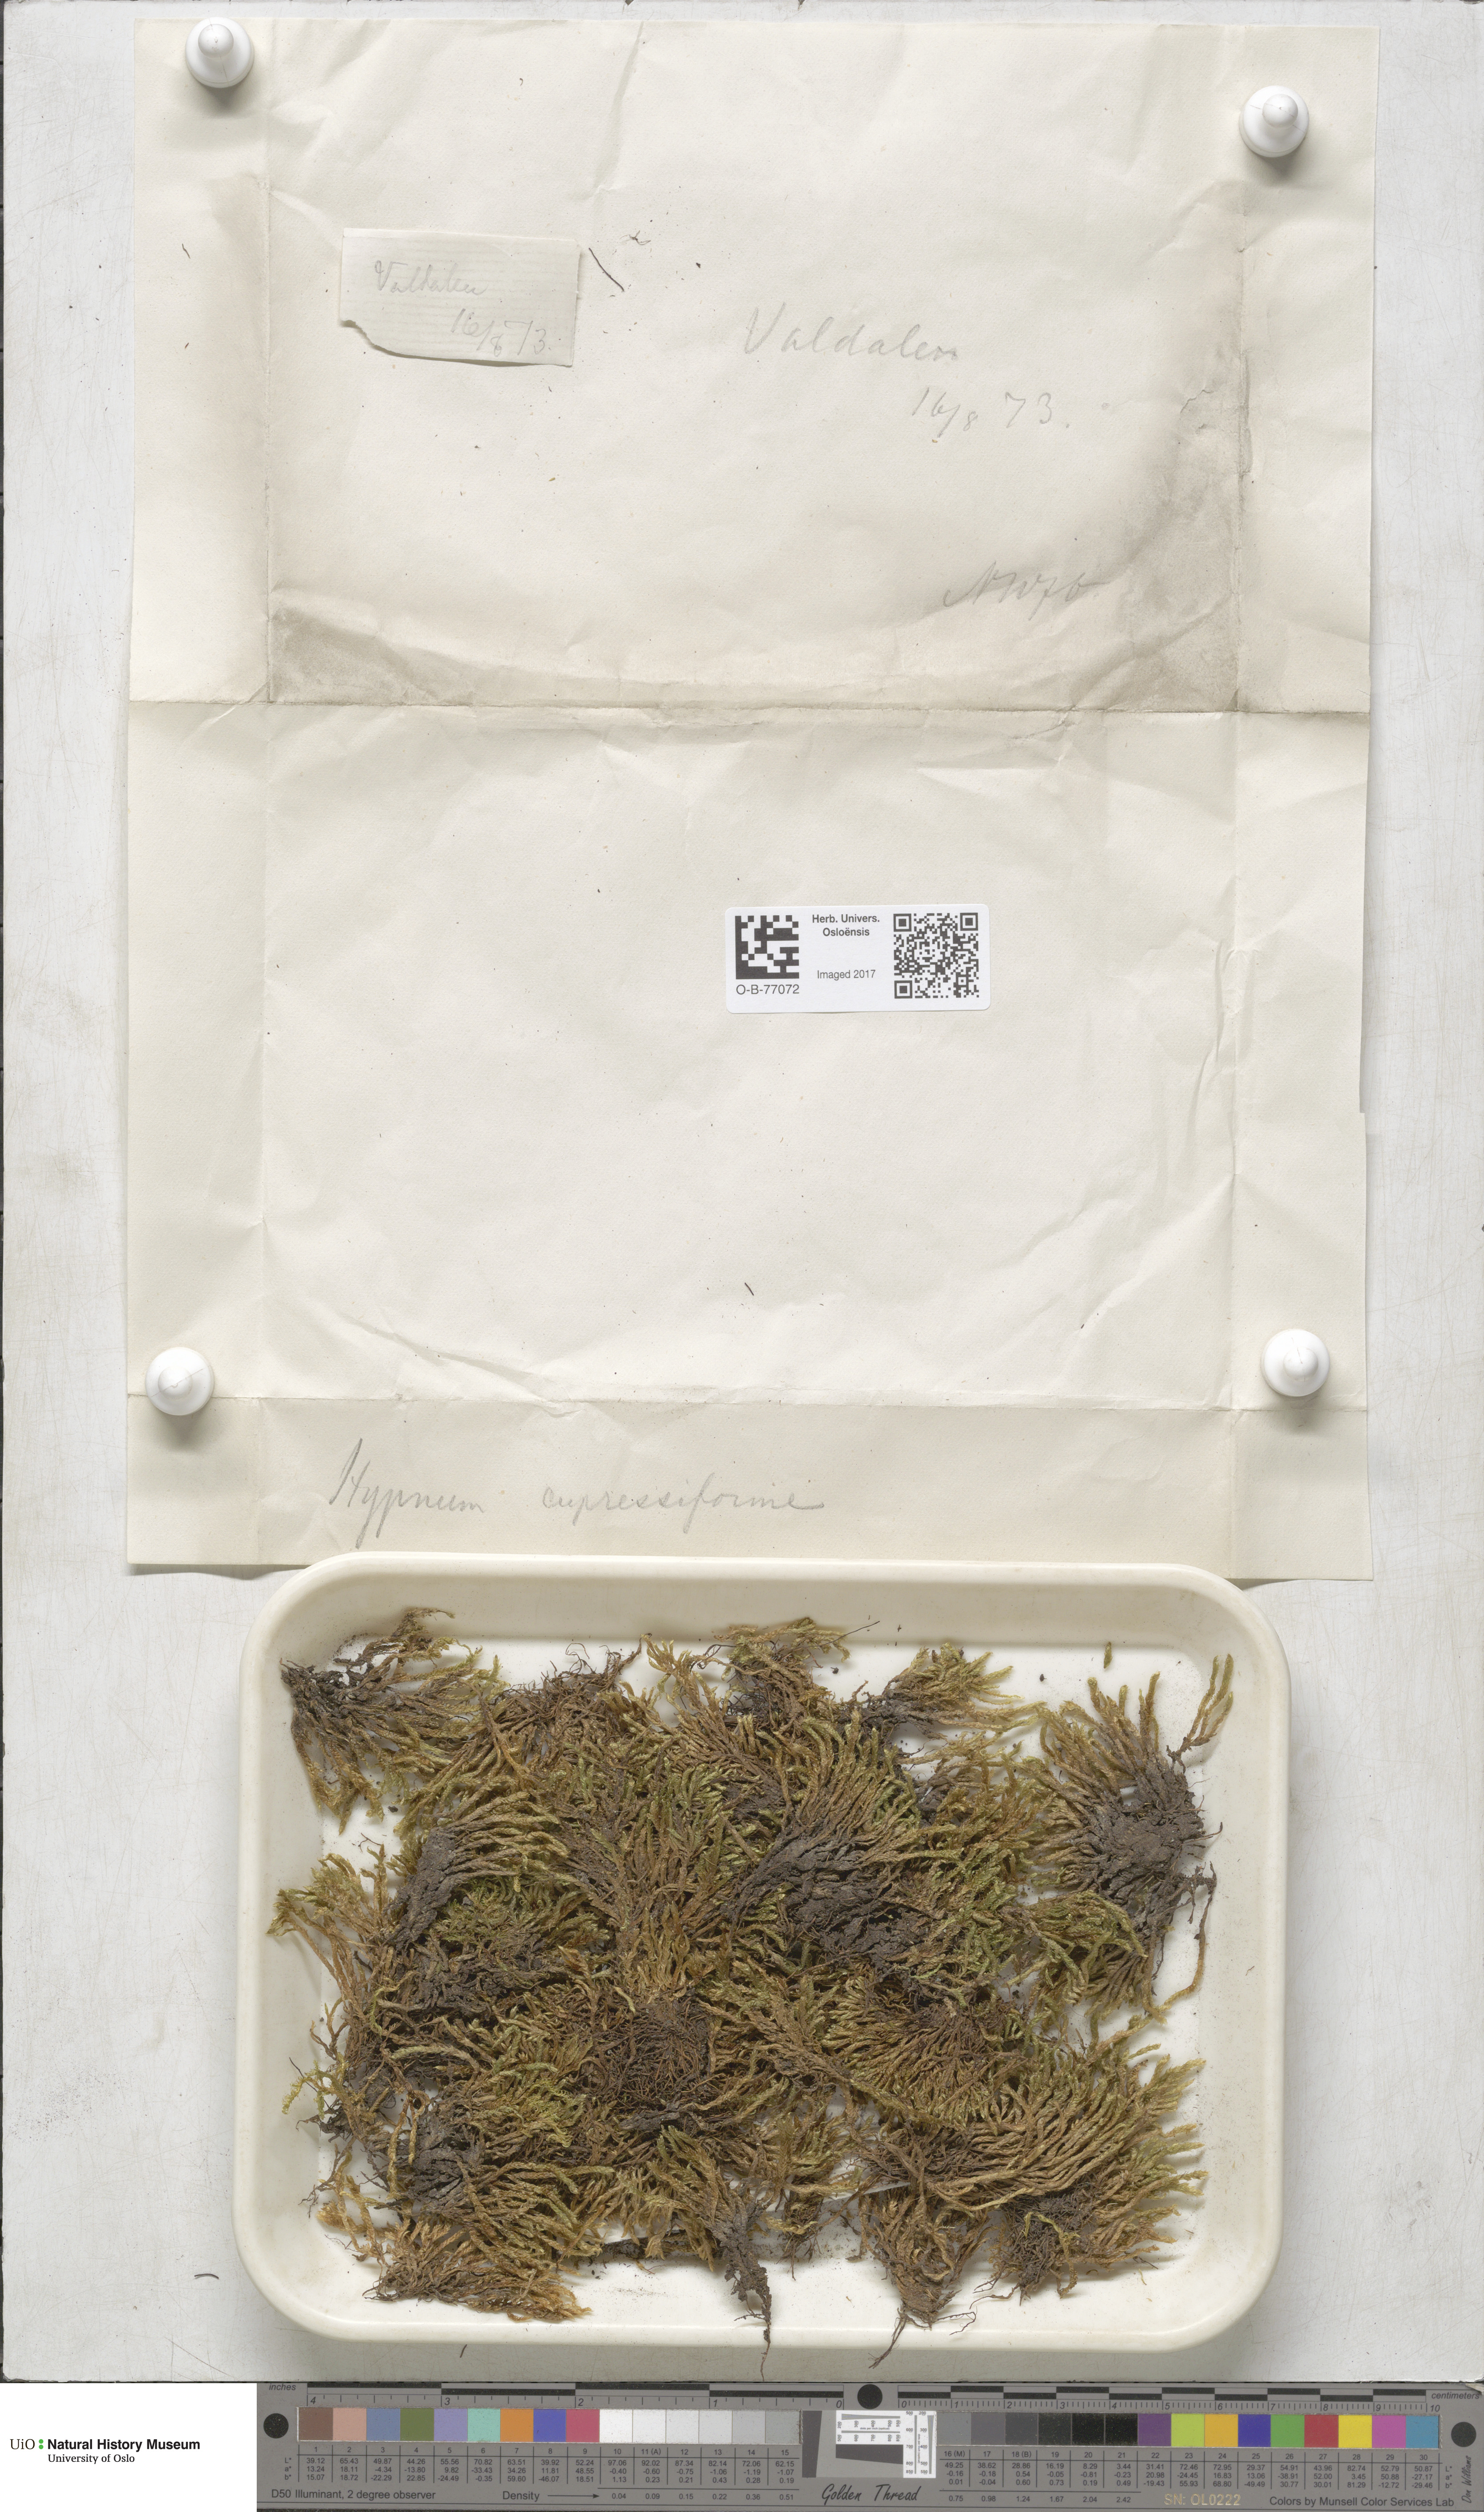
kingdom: Plantae
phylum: Bryophyta
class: Bryopsida
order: Hypnales
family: Hypnaceae
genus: Hypnum
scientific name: Hypnum cupressiforme
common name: Cypress-leaved plait-moss
